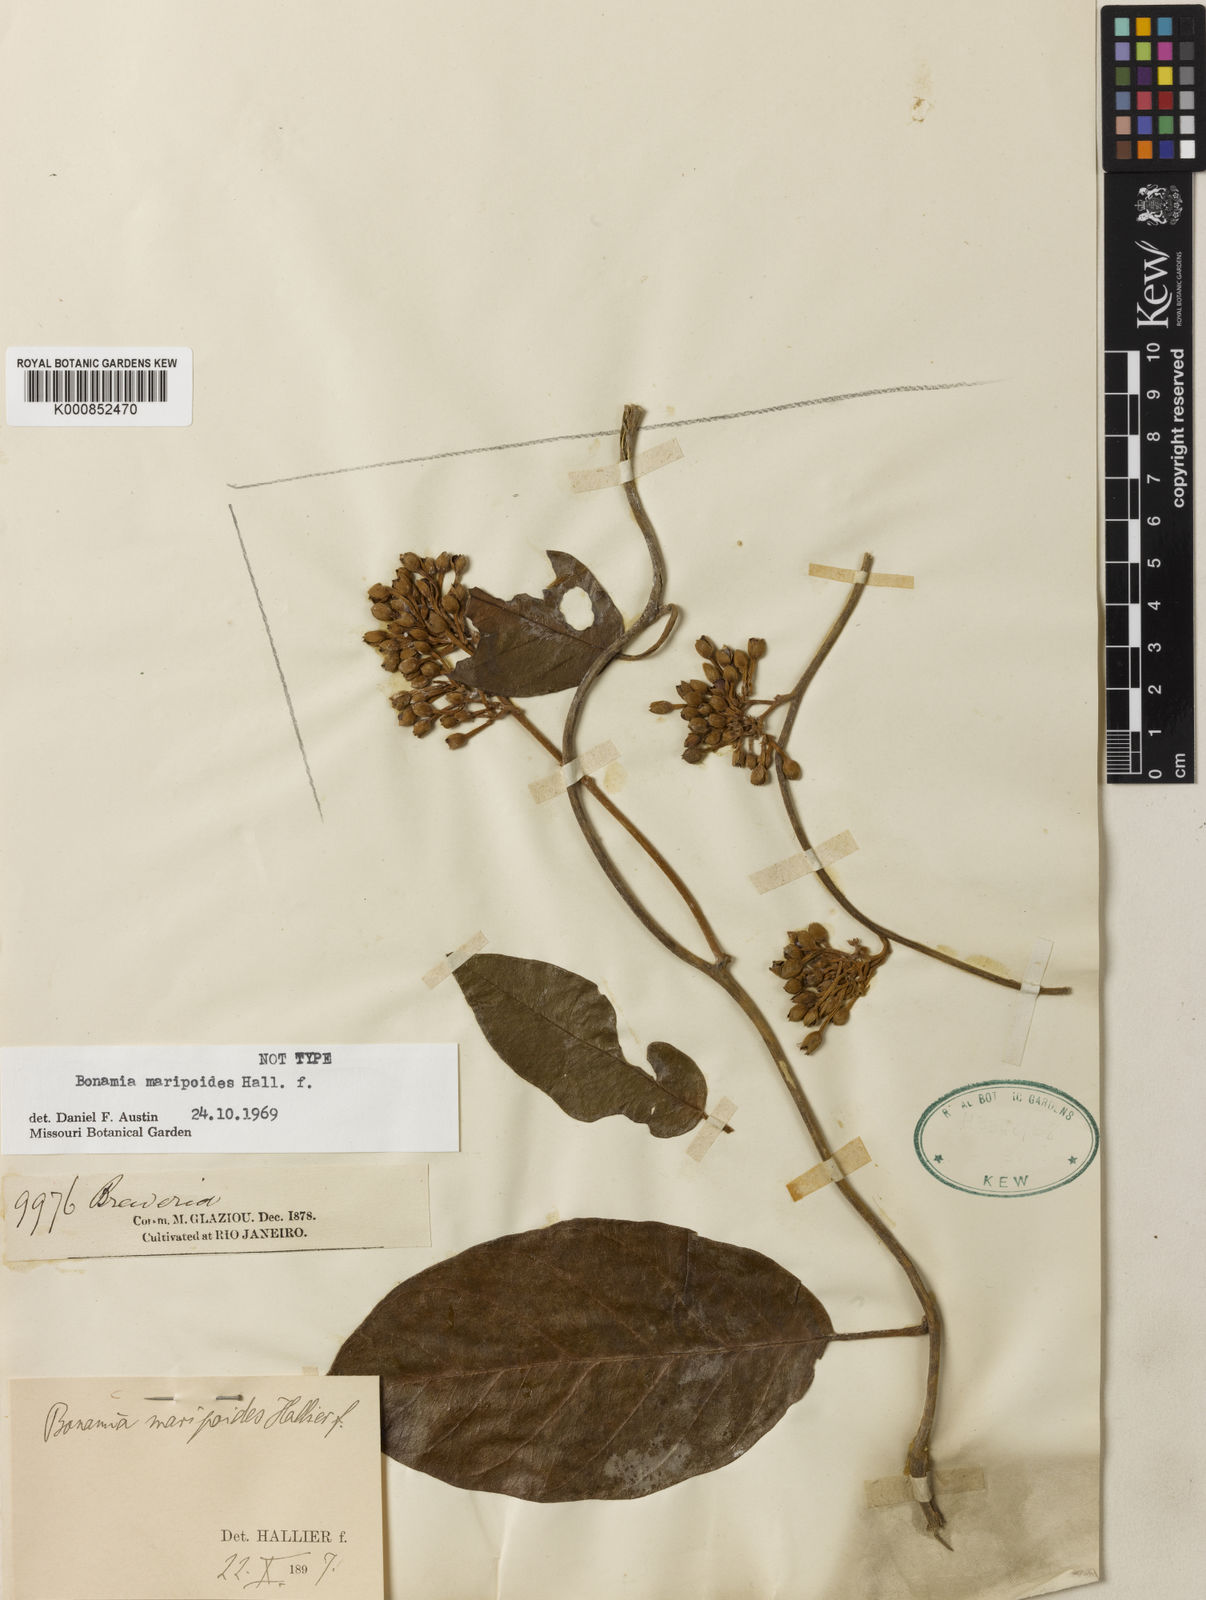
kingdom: Plantae
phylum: Tracheophyta
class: Magnoliopsida
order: Solanales
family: Convolvulaceae
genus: Bonamia
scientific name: Bonamia maripoides
